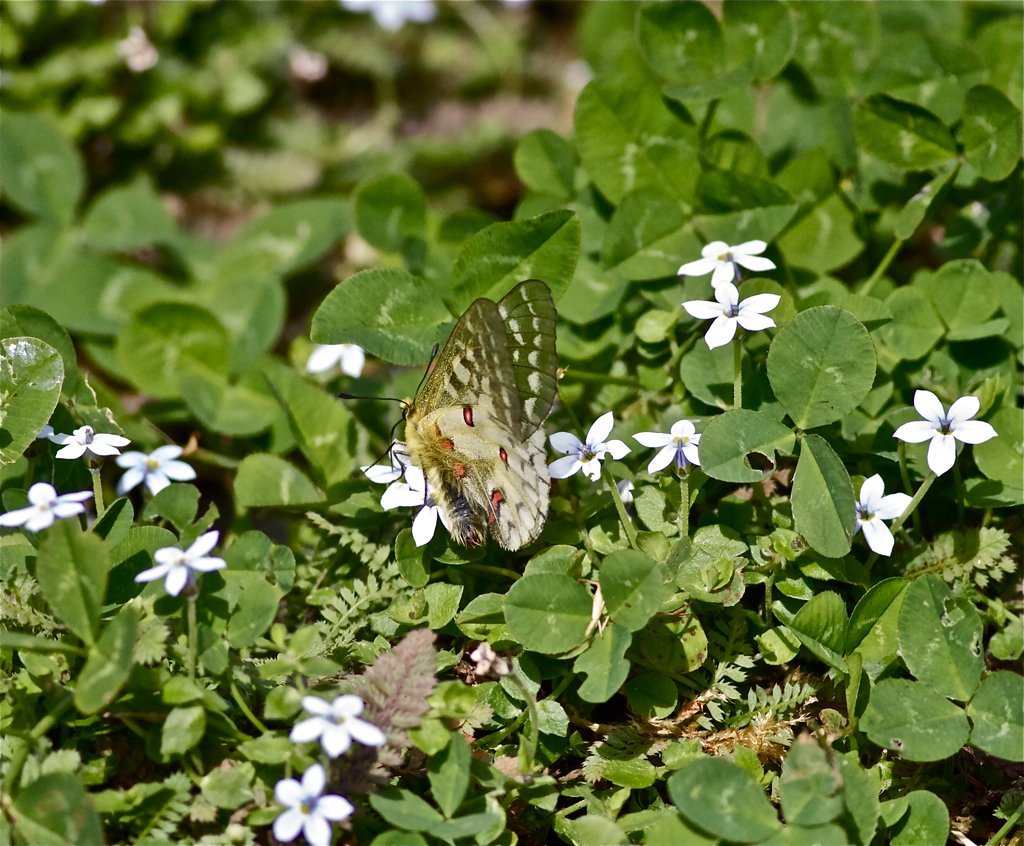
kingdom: Animalia
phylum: Arthropoda
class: Insecta
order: Lepidoptera
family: Papilionidae
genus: Parnassius
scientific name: Parnassius clodius
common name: Clodius Parnassian
